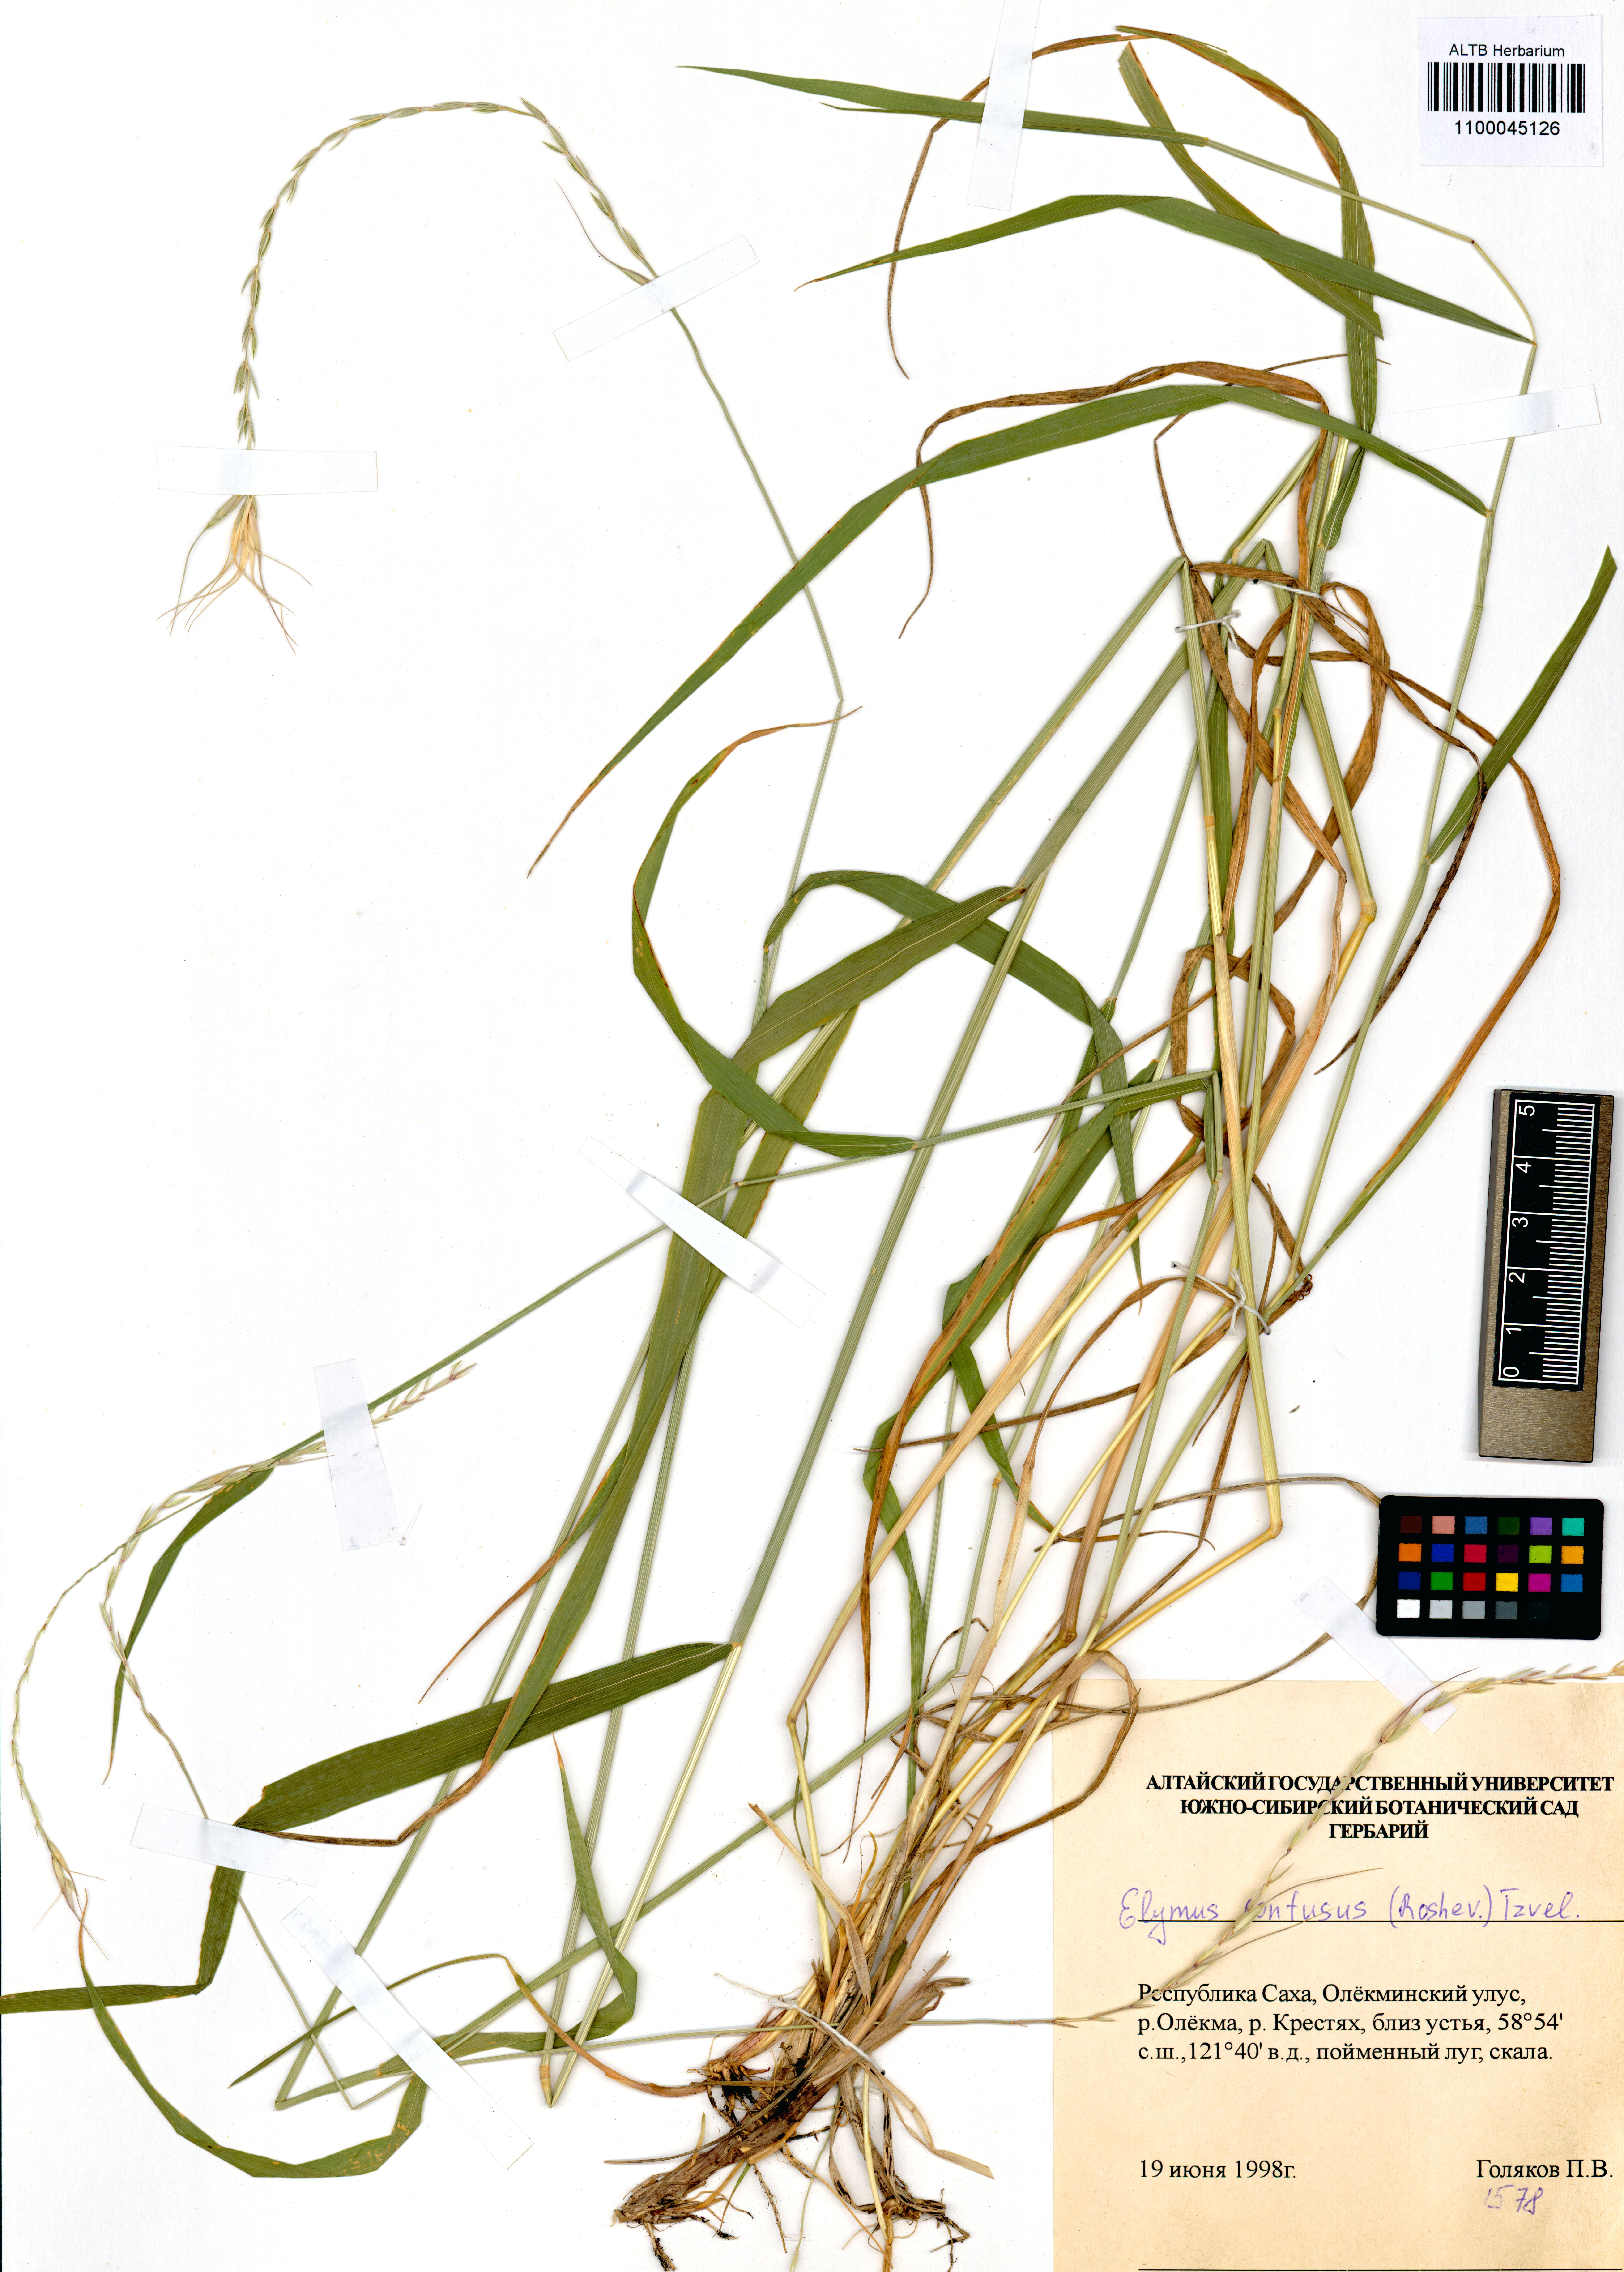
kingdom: Plantae
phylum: Tracheophyta
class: Liliopsida
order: Poales
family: Poaceae
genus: Elymus
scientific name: Elymus caninus
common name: Bearded couch
